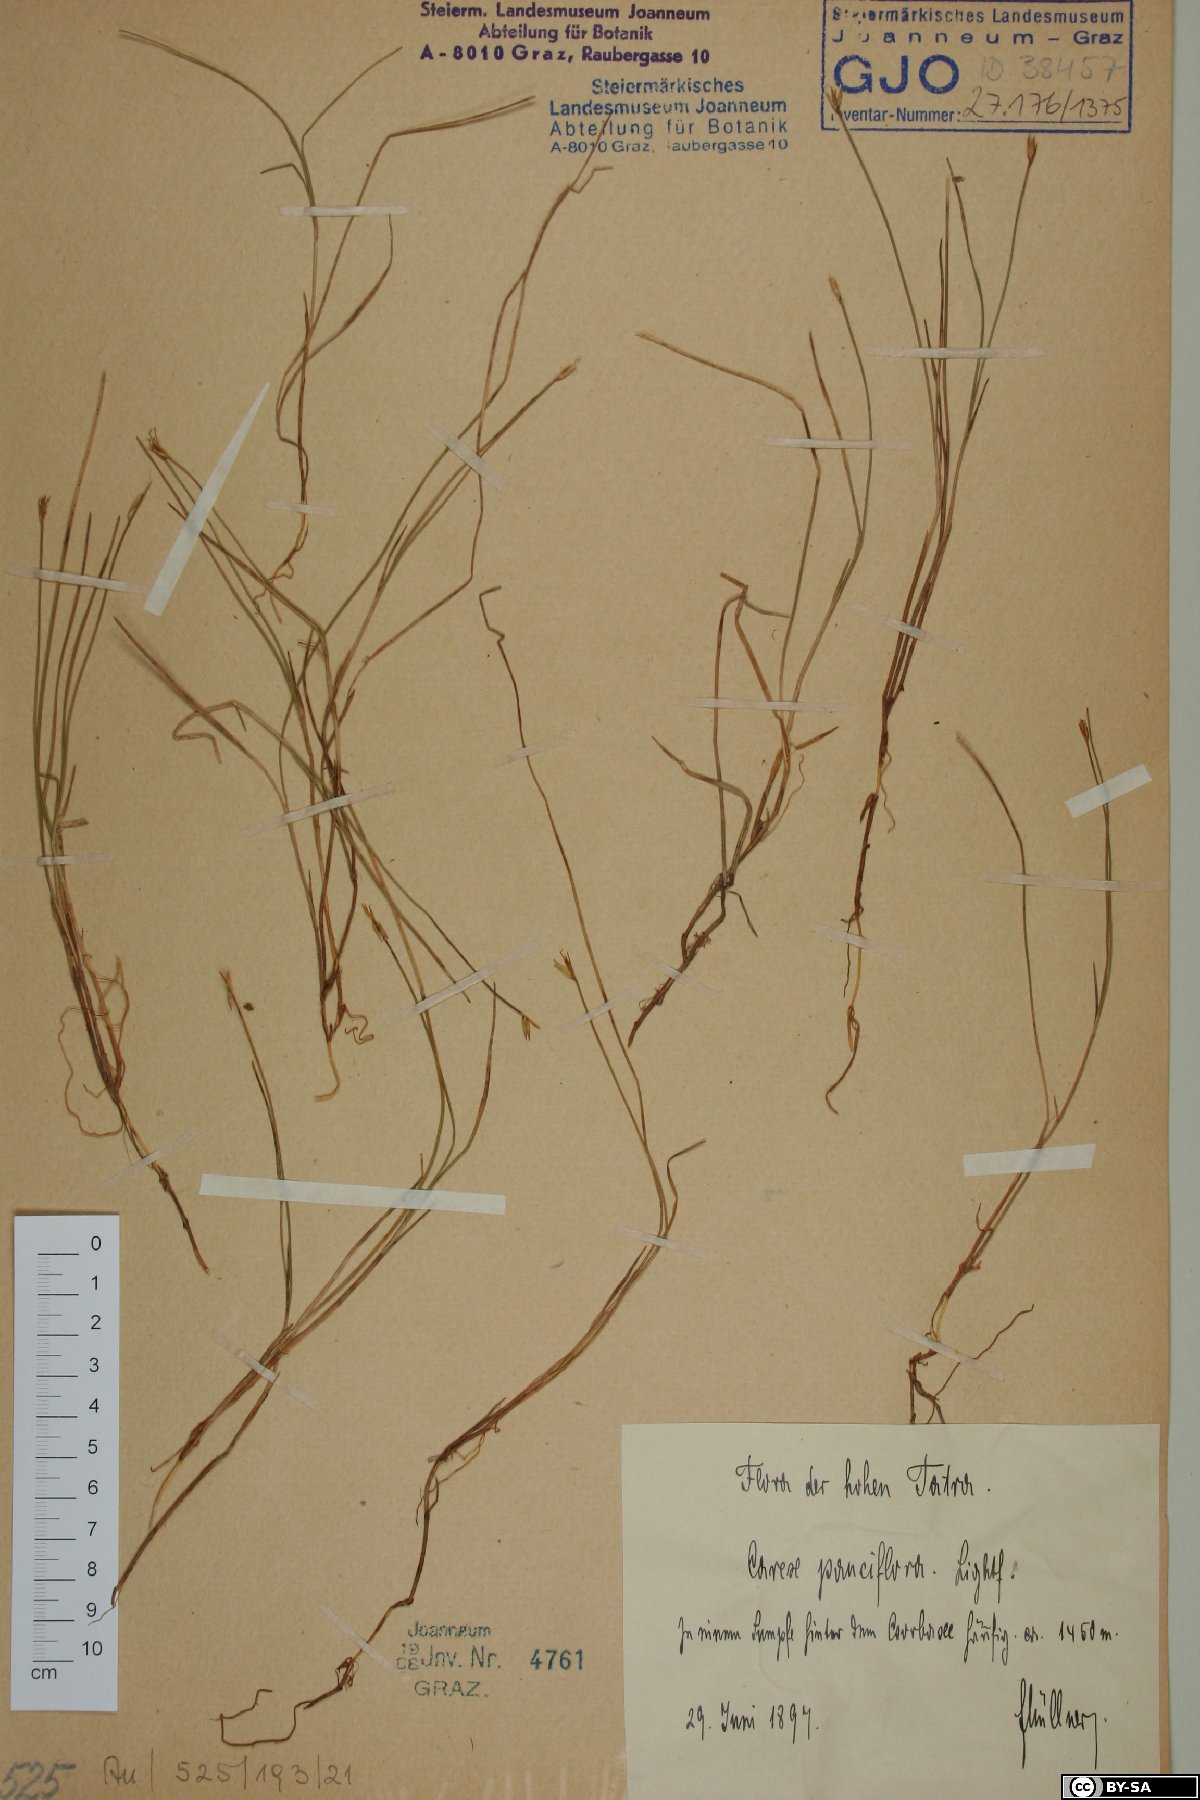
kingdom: Plantae
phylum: Tracheophyta
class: Liliopsida
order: Poales
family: Cyperaceae
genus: Carex
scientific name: Carex pauciflora
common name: Few-flowered sedge
